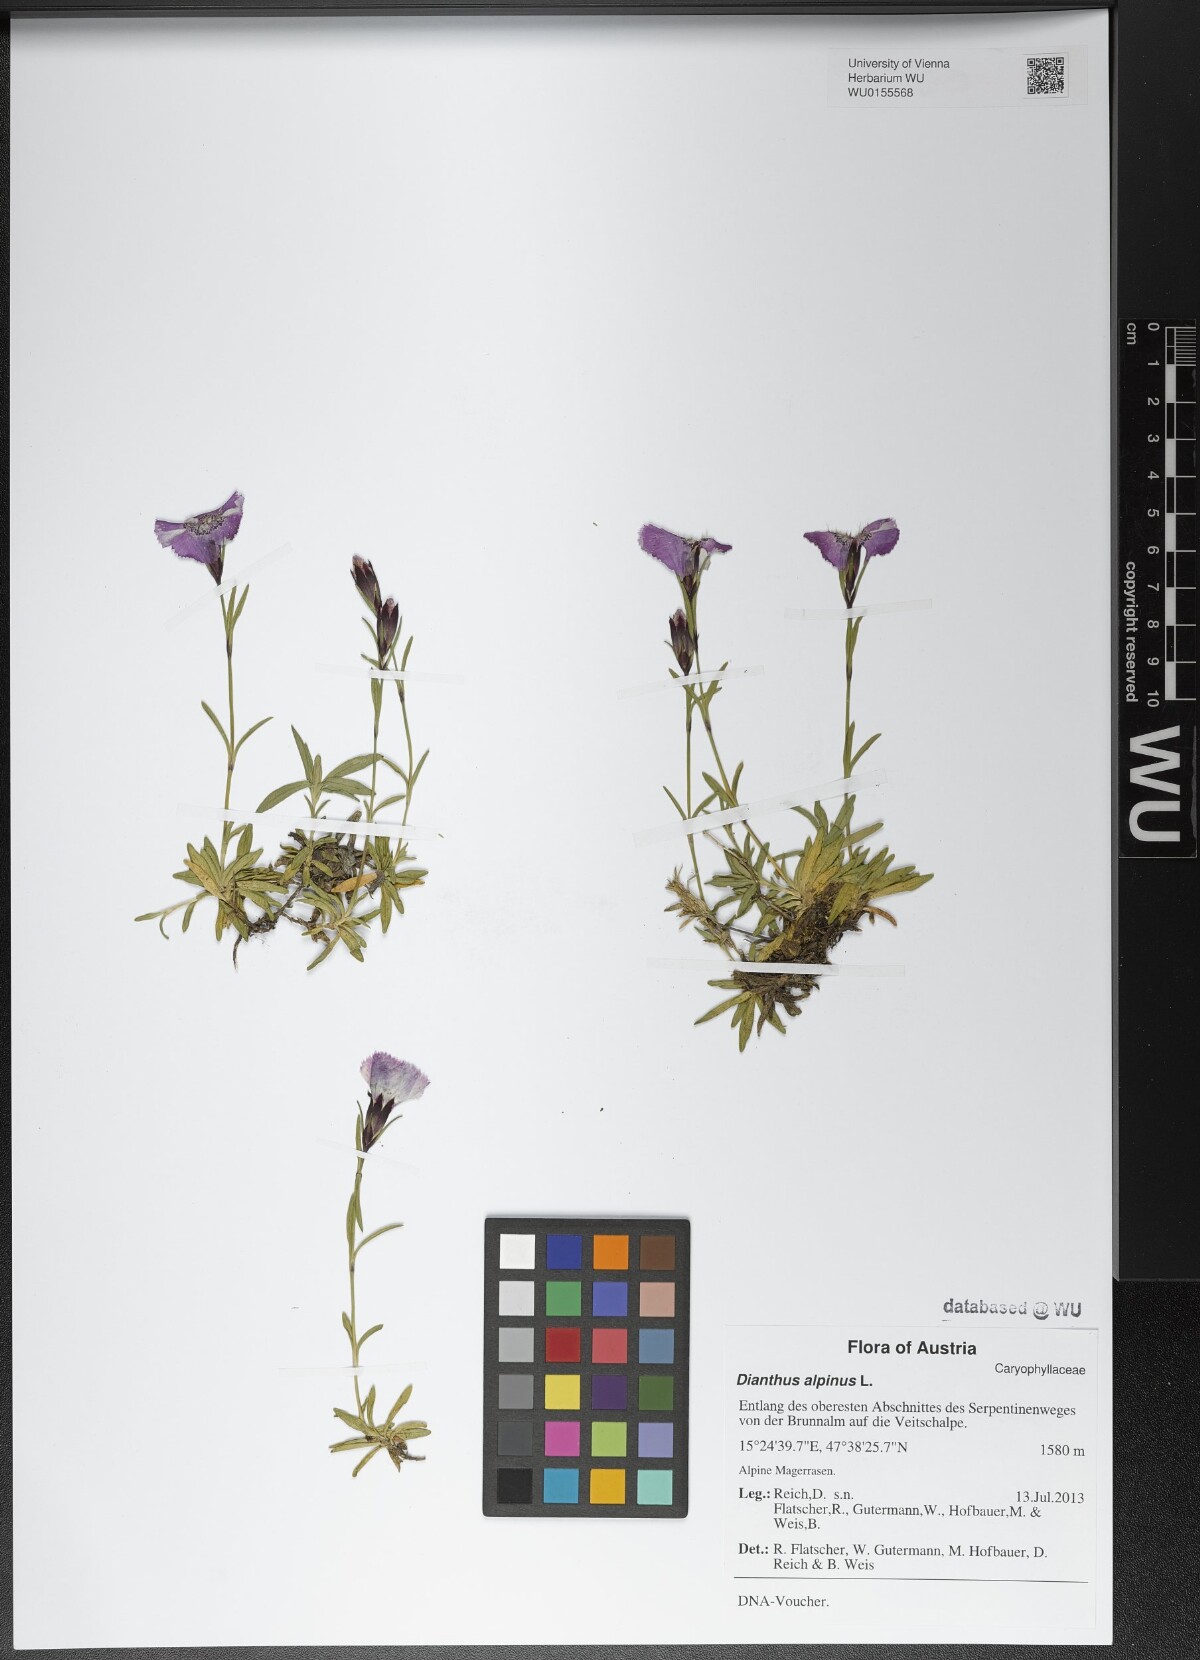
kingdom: Plantae
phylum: Tracheophyta
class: Magnoliopsida
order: Caryophyllales
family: Caryophyllaceae
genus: Dianthus
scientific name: Dianthus alpinus
